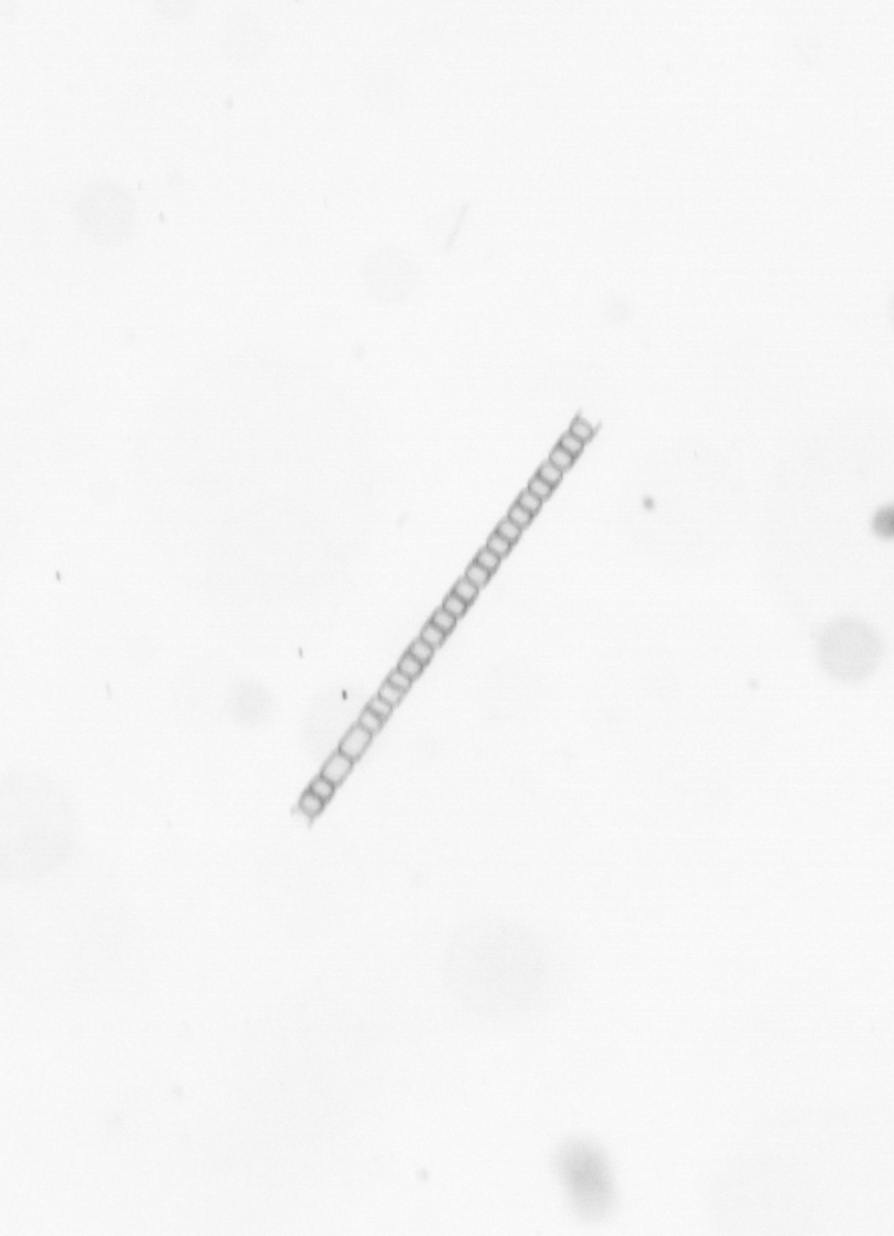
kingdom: Chromista
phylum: Ochrophyta
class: Bacillariophyceae
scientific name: Bacillariophyceae
